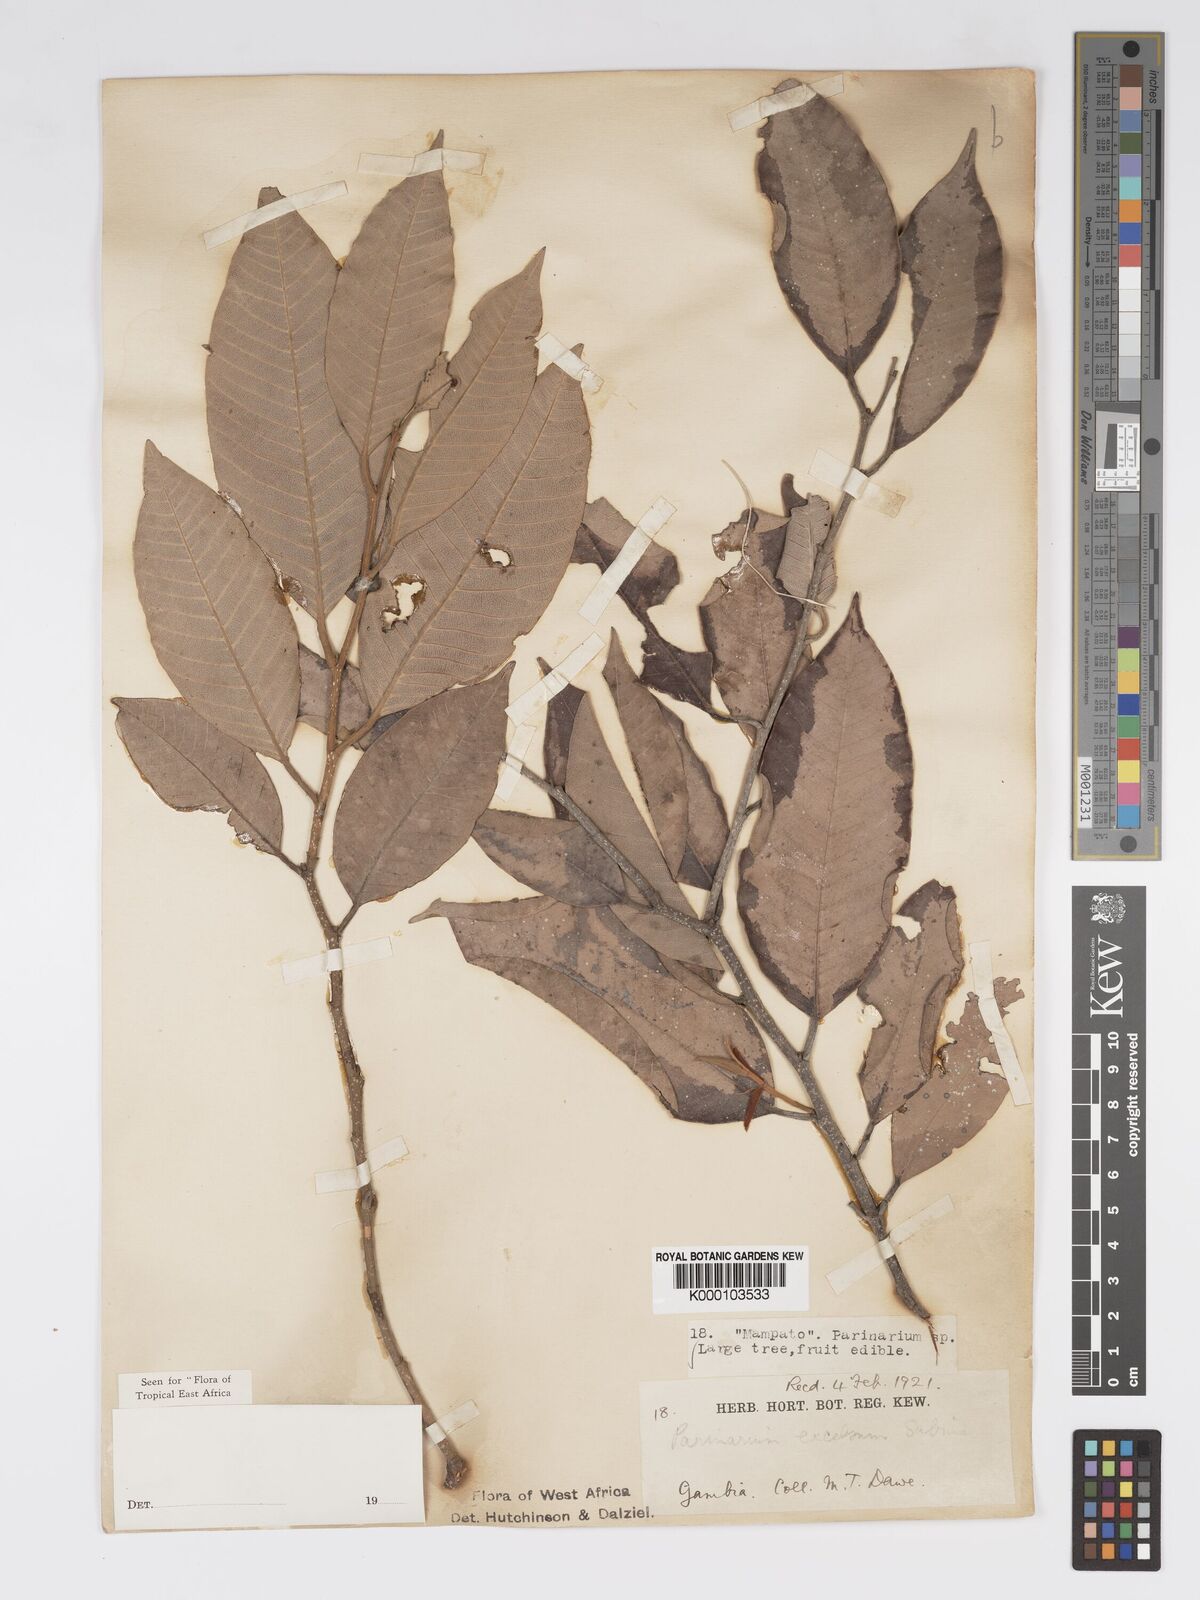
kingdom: Plantae
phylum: Tracheophyta
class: Magnoliopsida
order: Malpighiales
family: Chrysobalanaceae
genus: Parinari
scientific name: Parinari excelsa
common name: Guinea-plum
